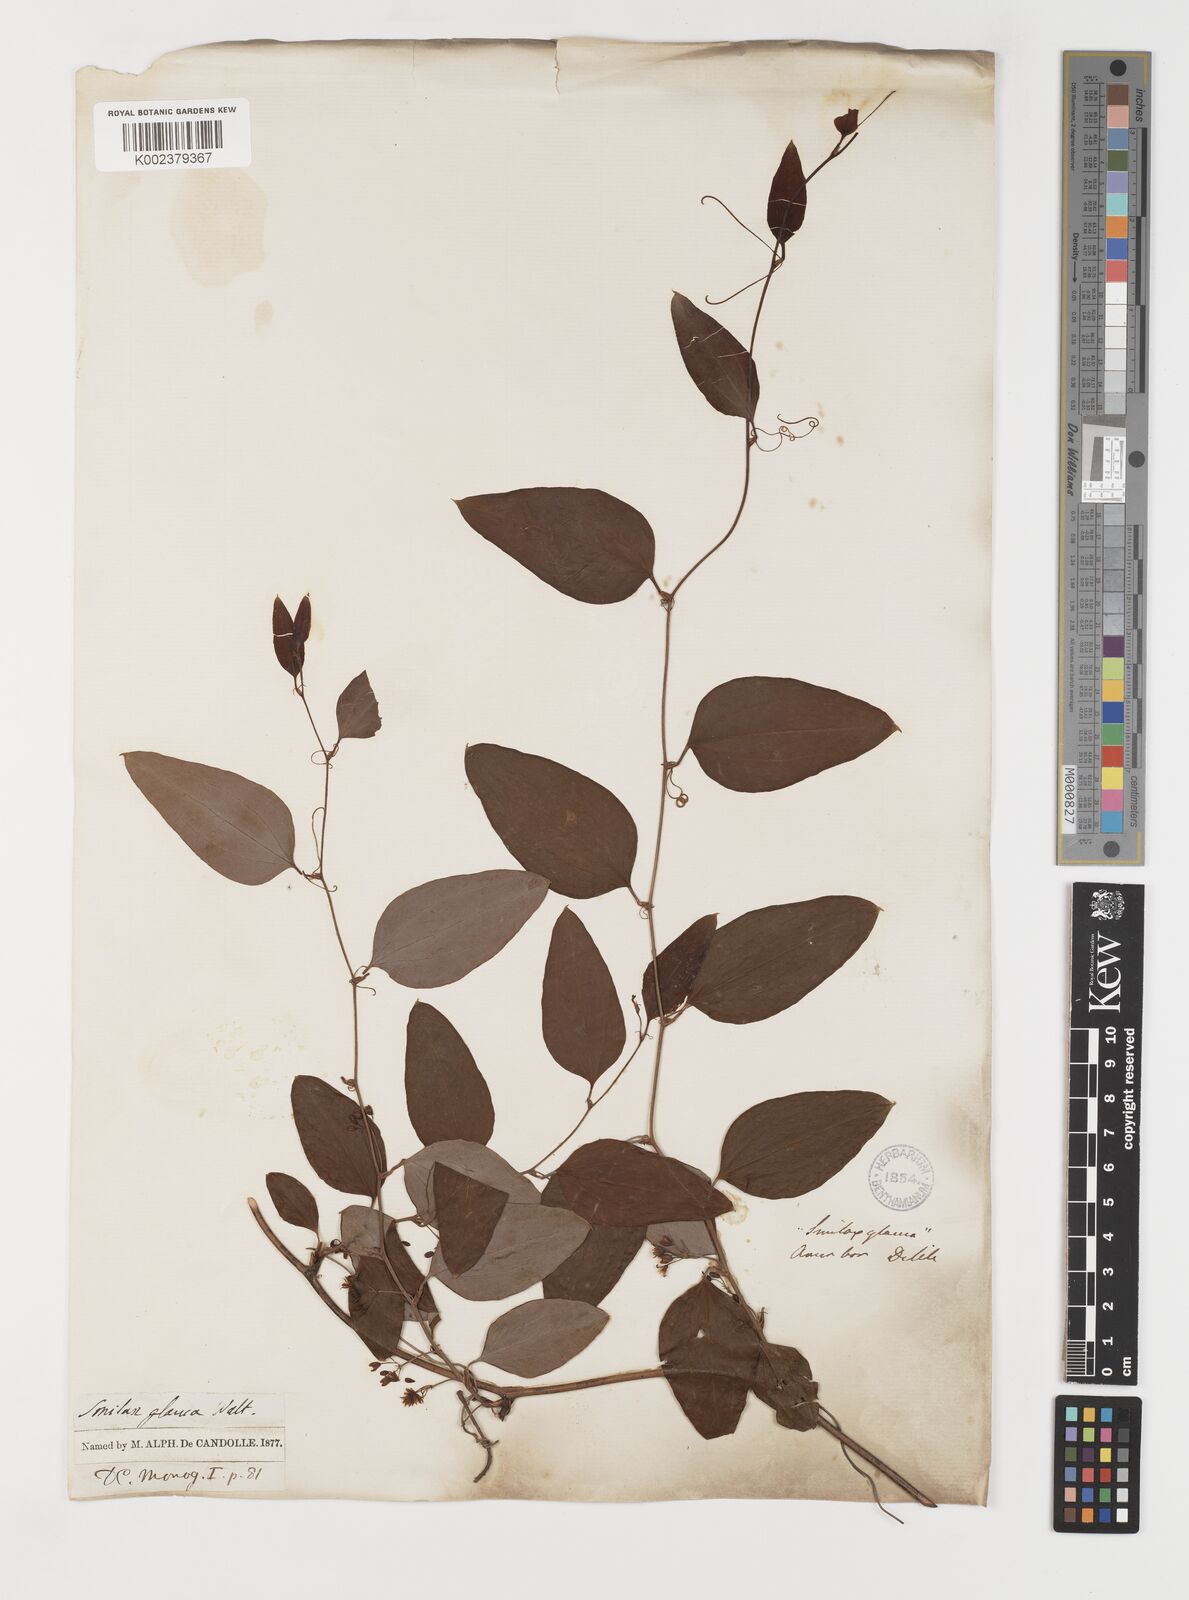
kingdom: Plantae
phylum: Tracheophyta
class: Liliopsida
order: Liliales
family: Smilacaceae
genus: Smilax
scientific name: Smilax glauca
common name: Cat greenbrier
